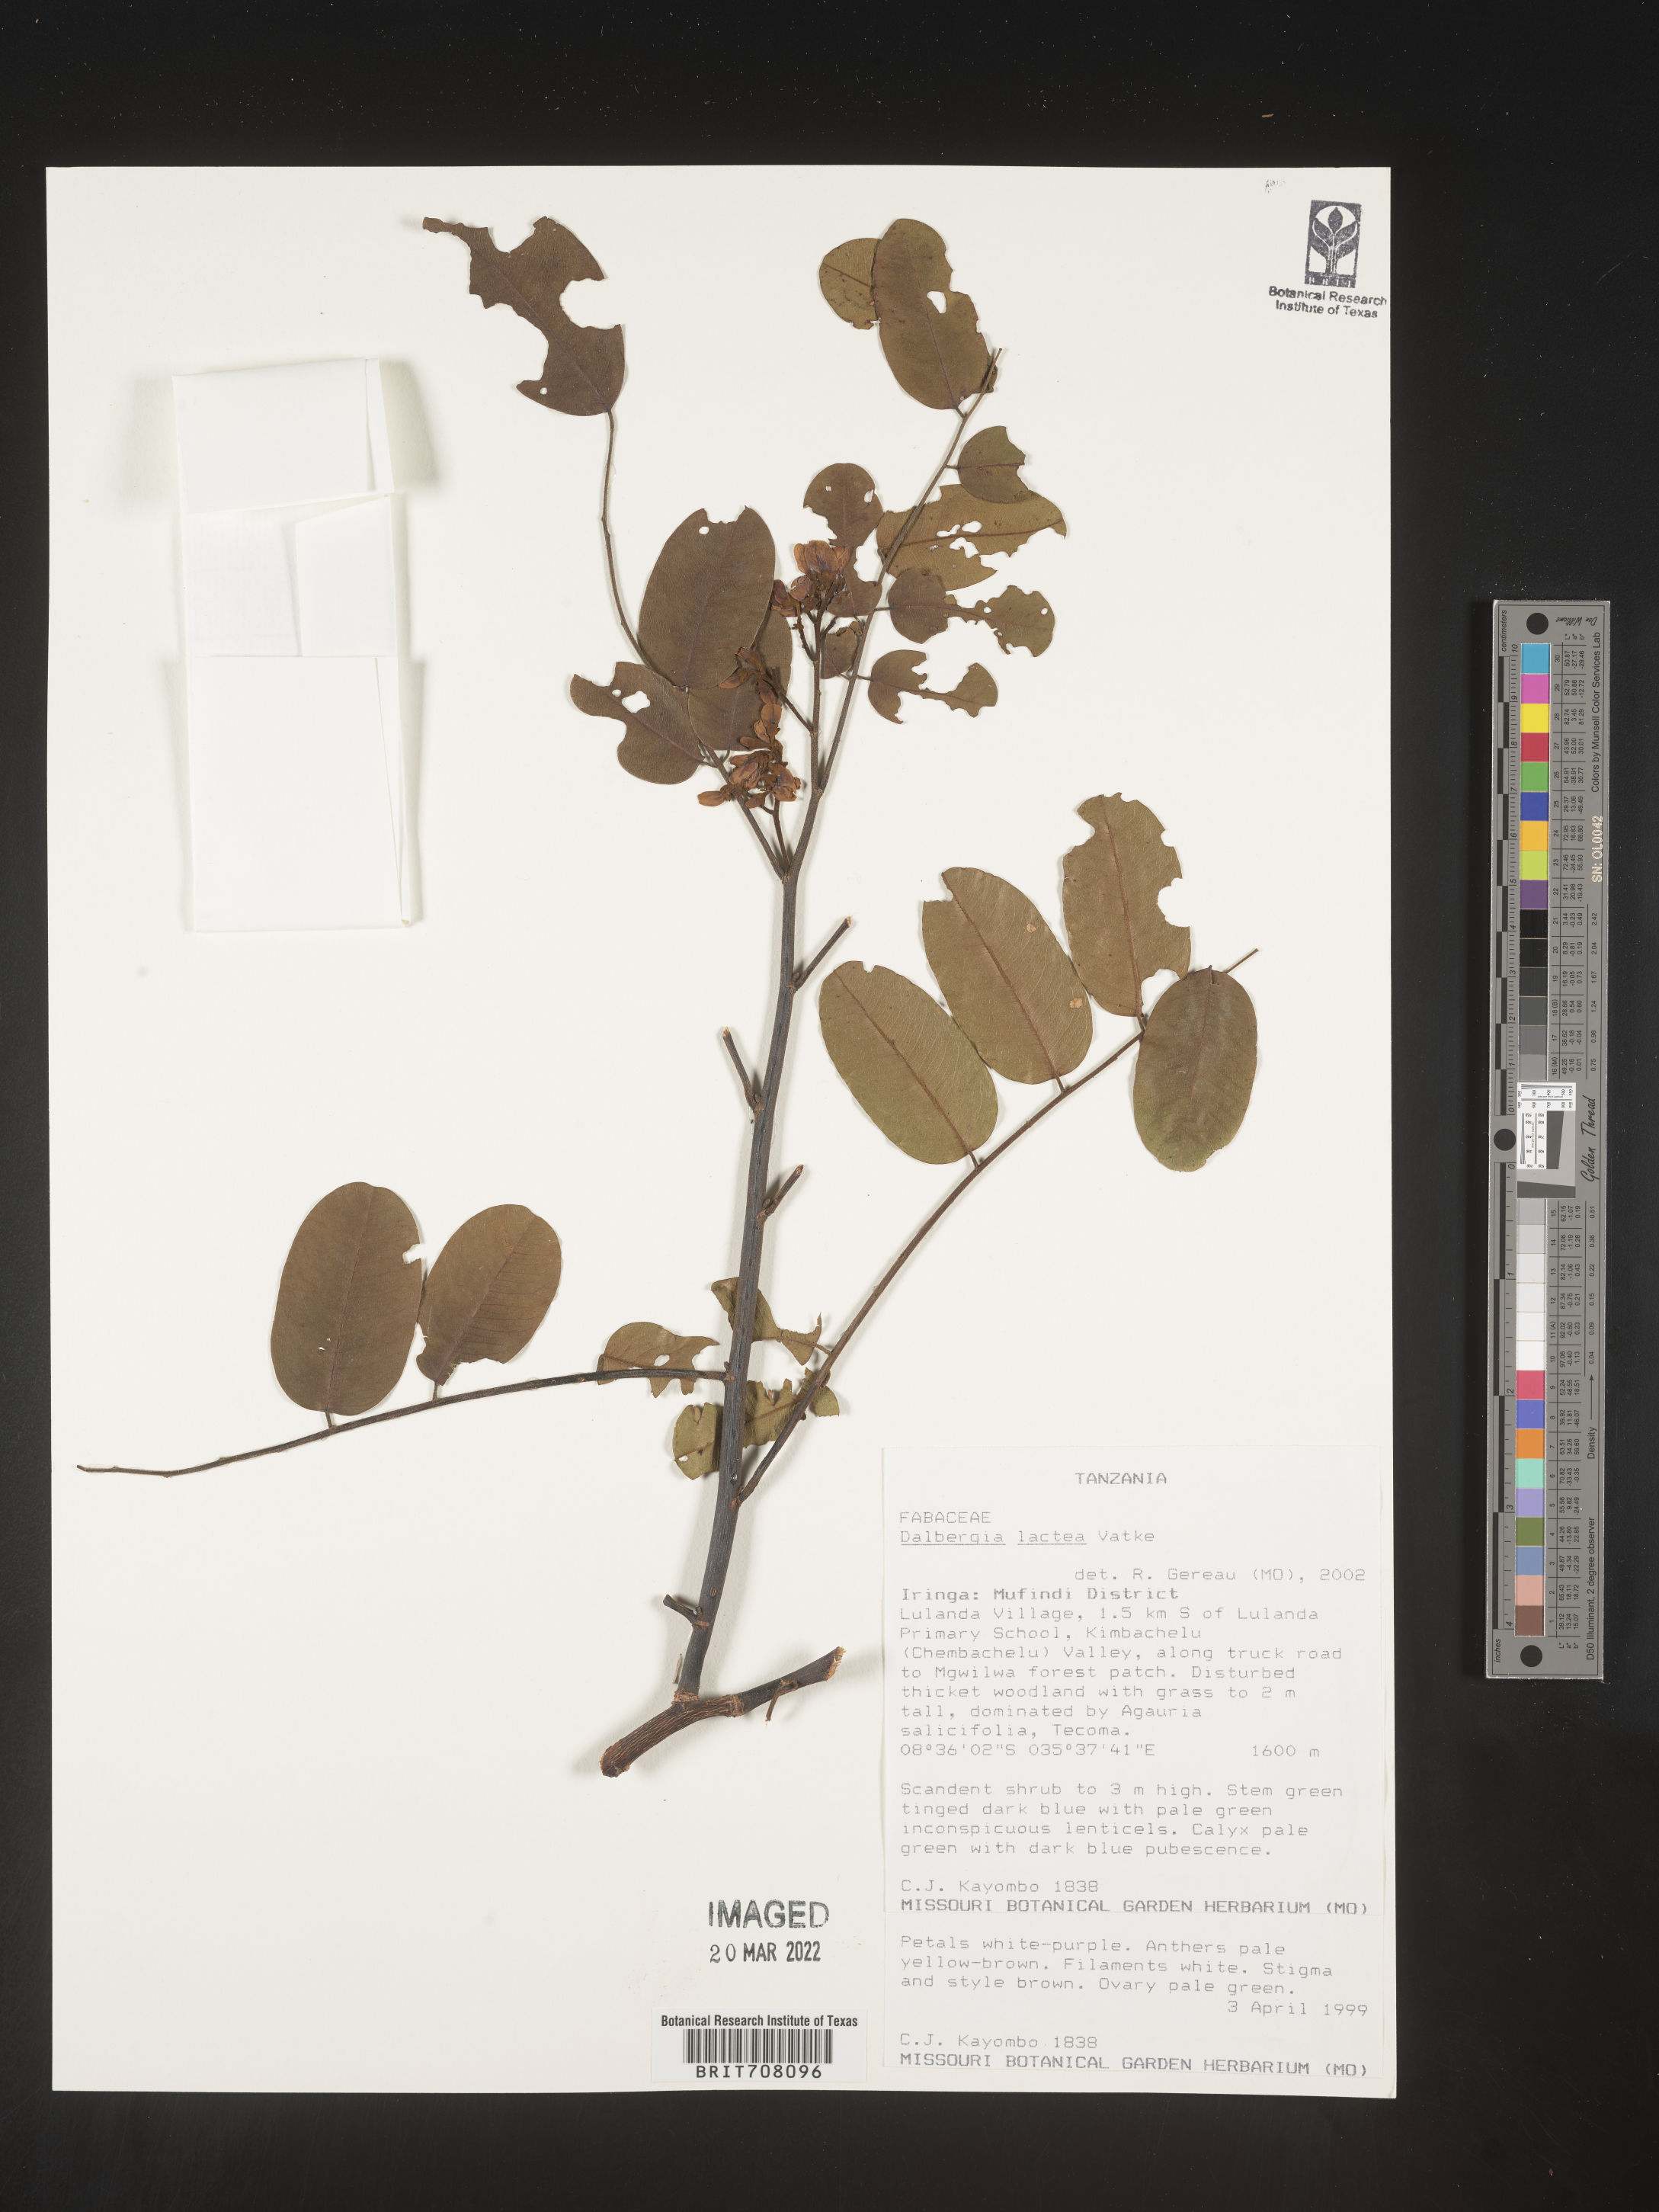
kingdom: Plantae
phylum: Tracheophyta
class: Magnoliopsida
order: Fabales
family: Fabaceae
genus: Dalbergia
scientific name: Dalbergia
